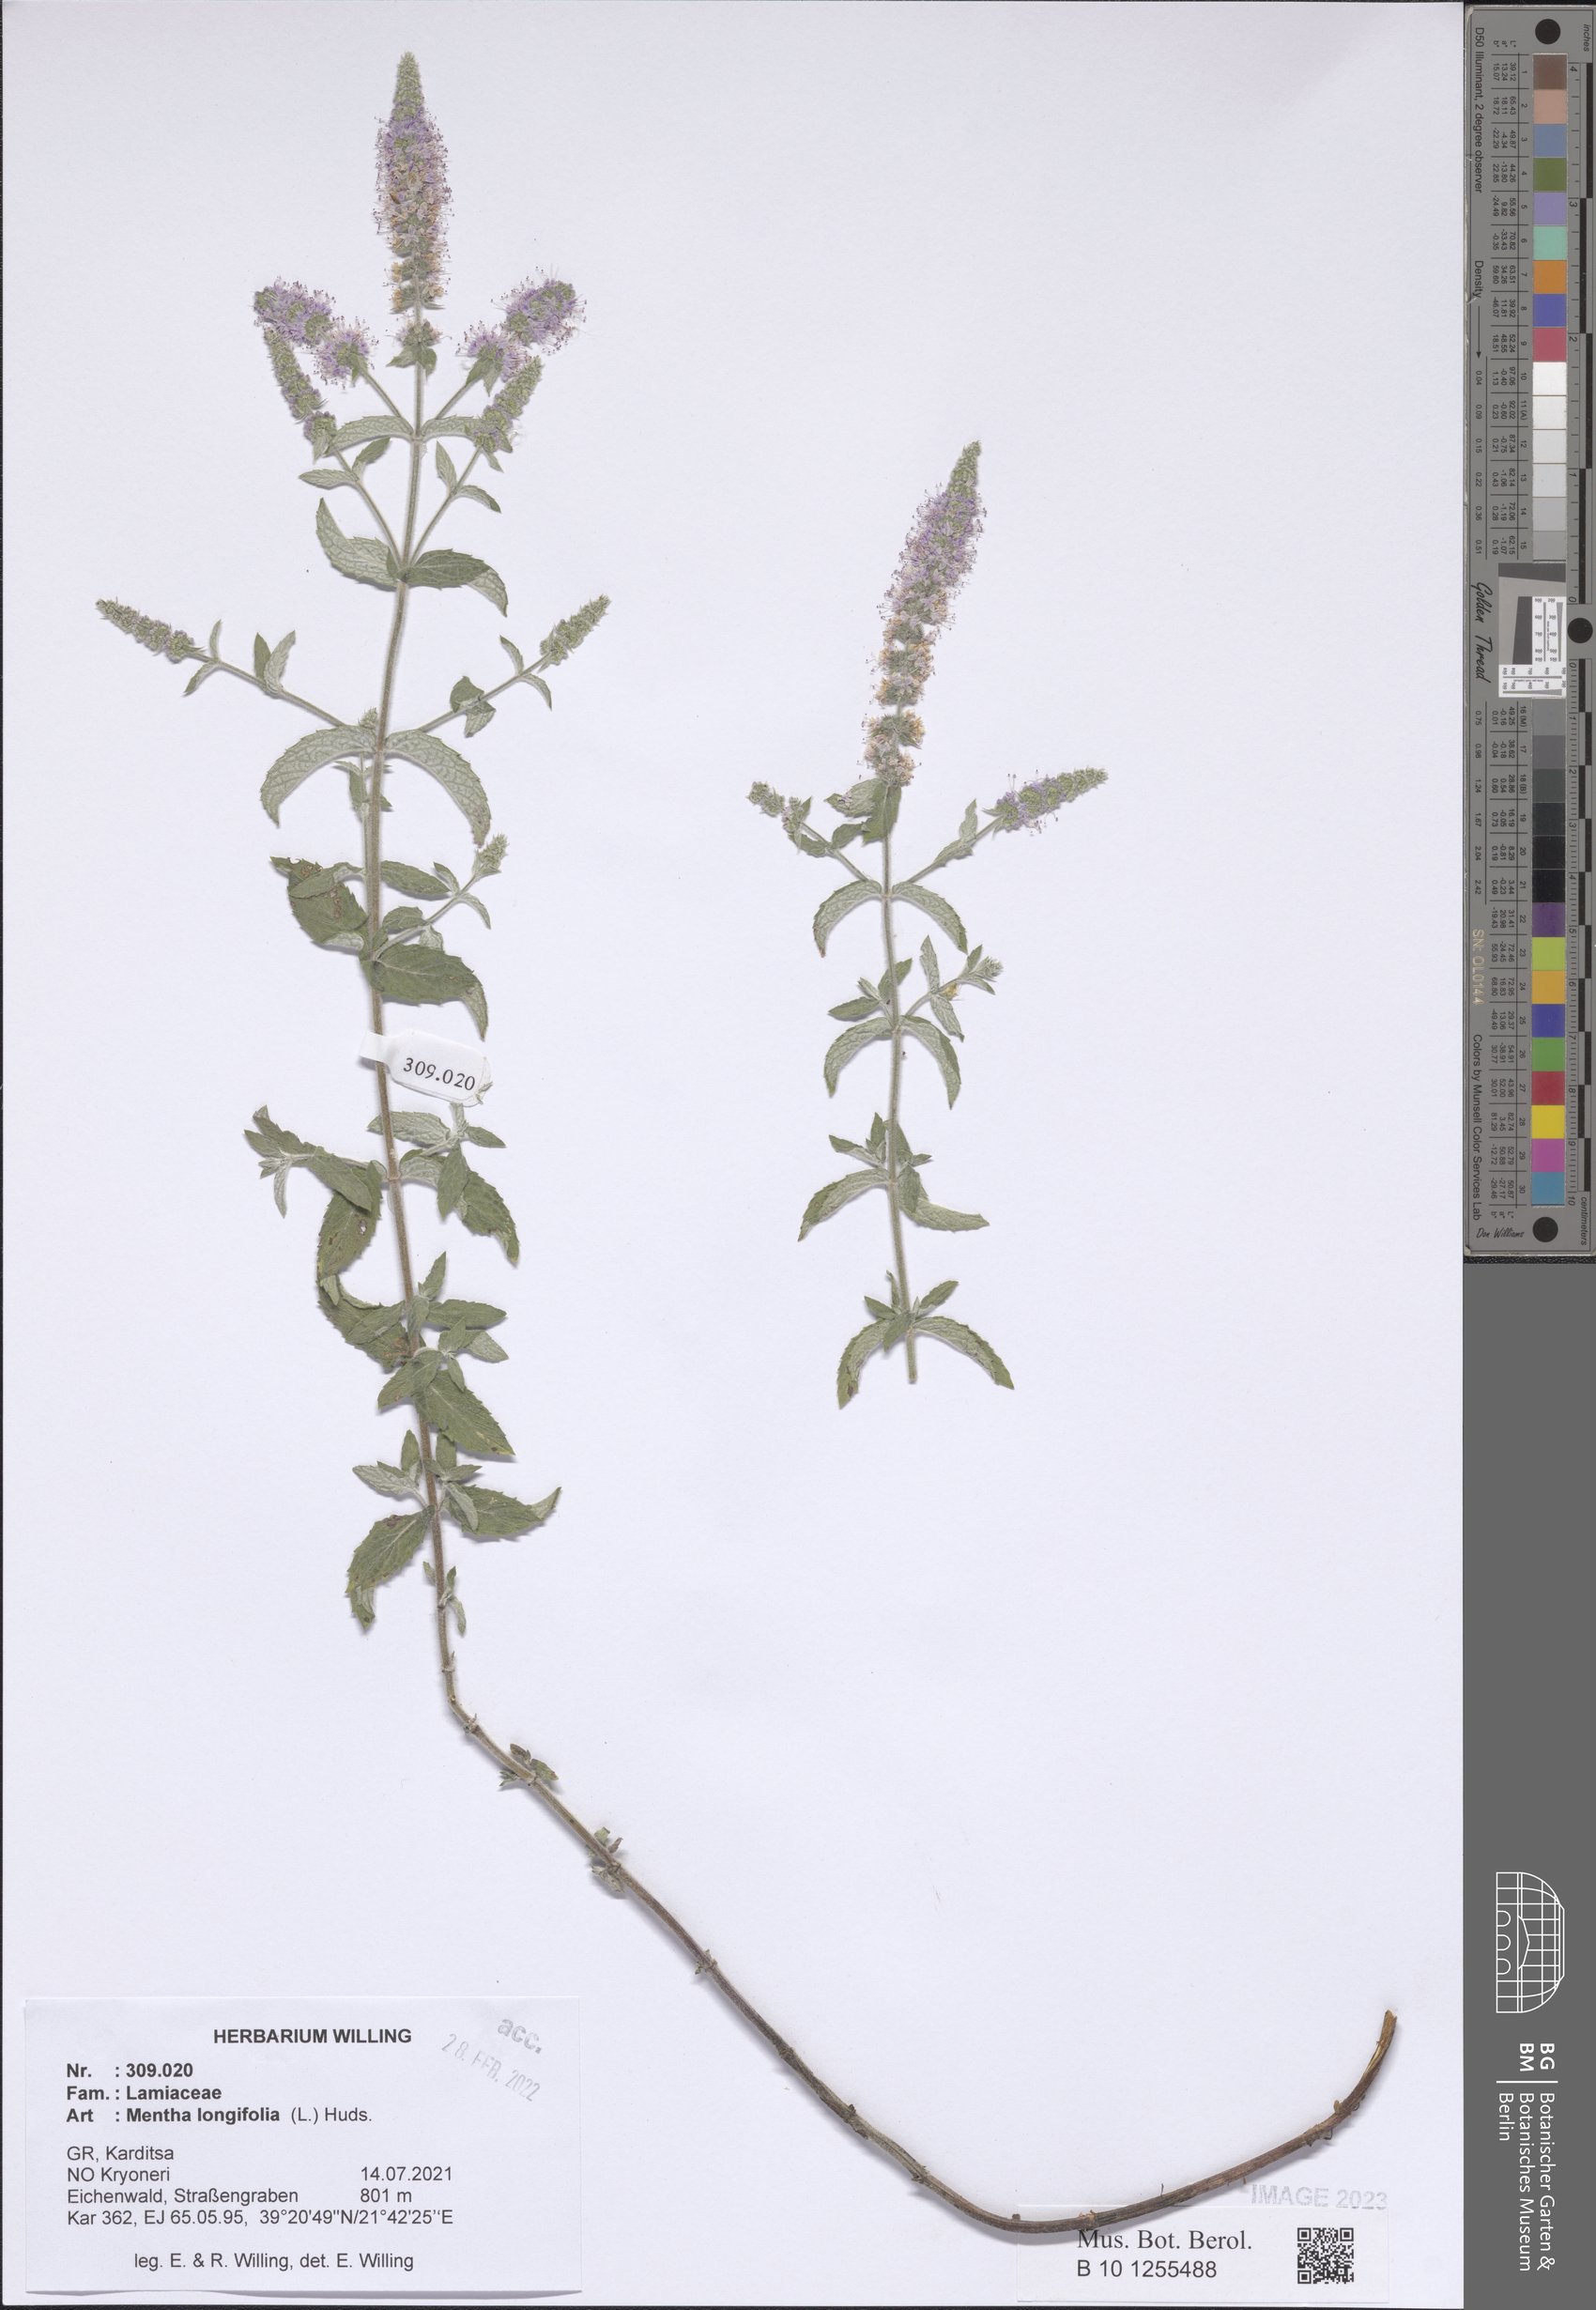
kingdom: Plantae
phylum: Tracheophyta
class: Magnoliopsida
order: Lamiales
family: Lamiaceae
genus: Mentha
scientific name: Mentha longifolia
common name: Horse mint
